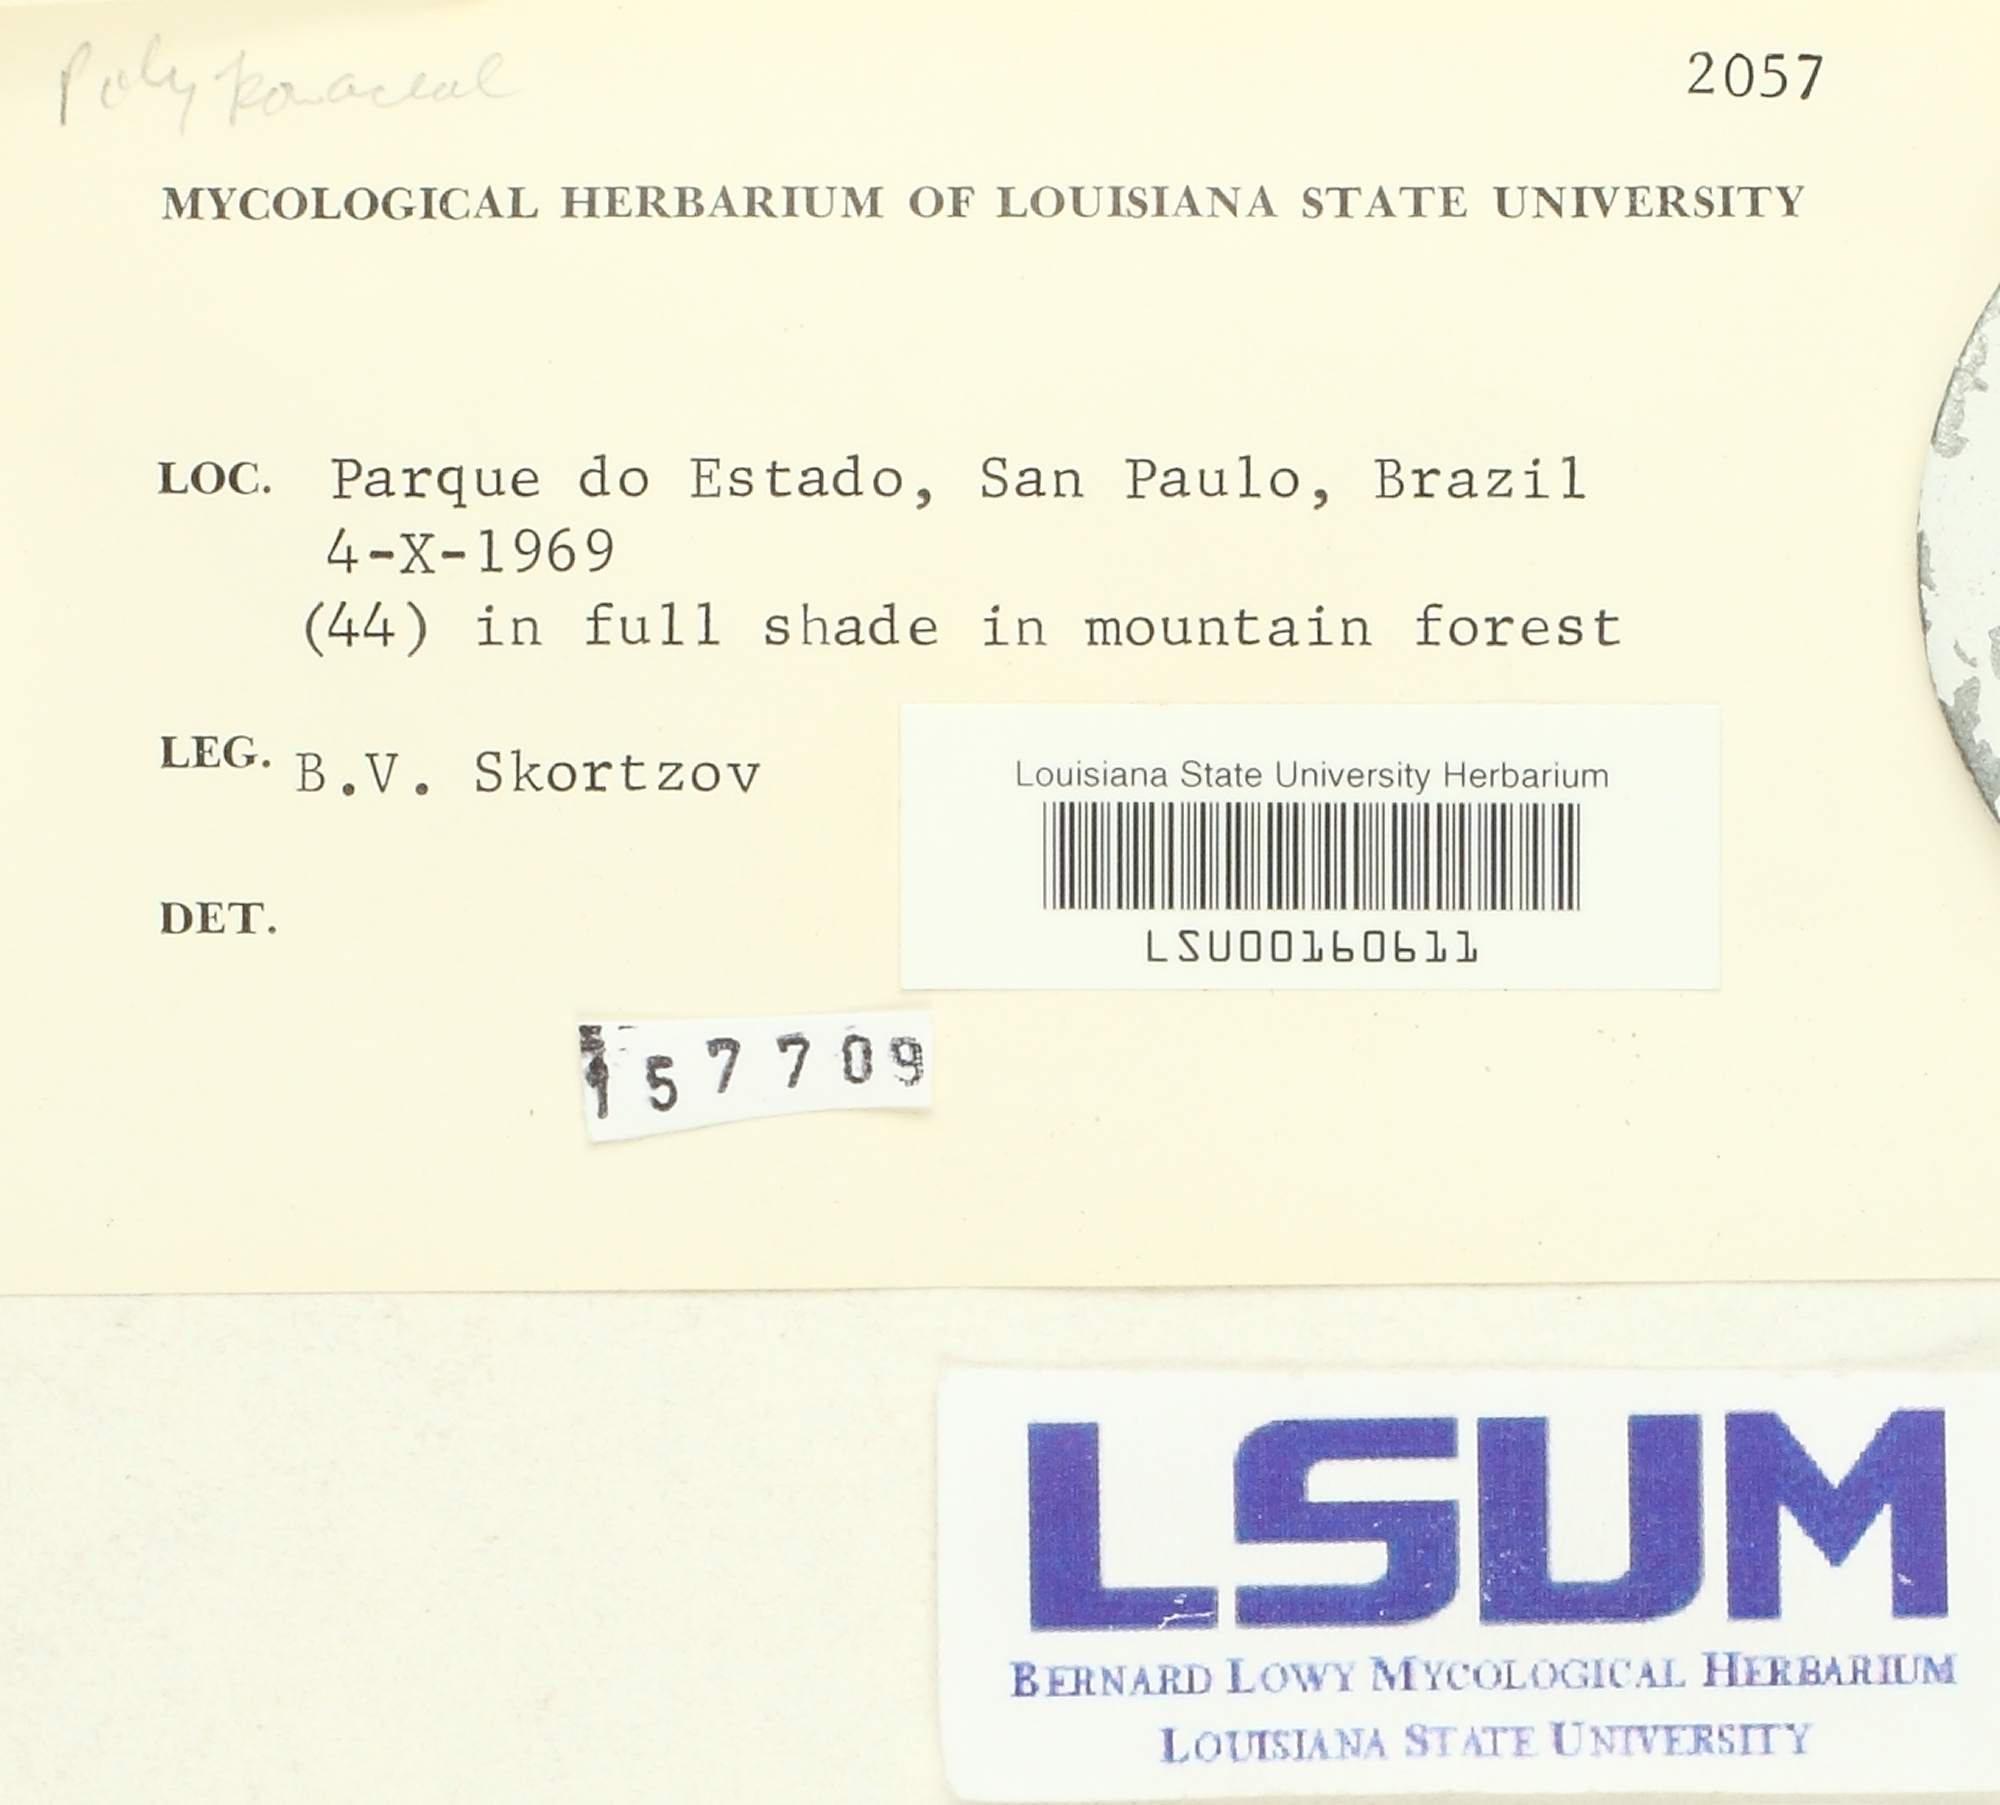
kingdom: Fungi
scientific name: Fungi
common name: Fungi
